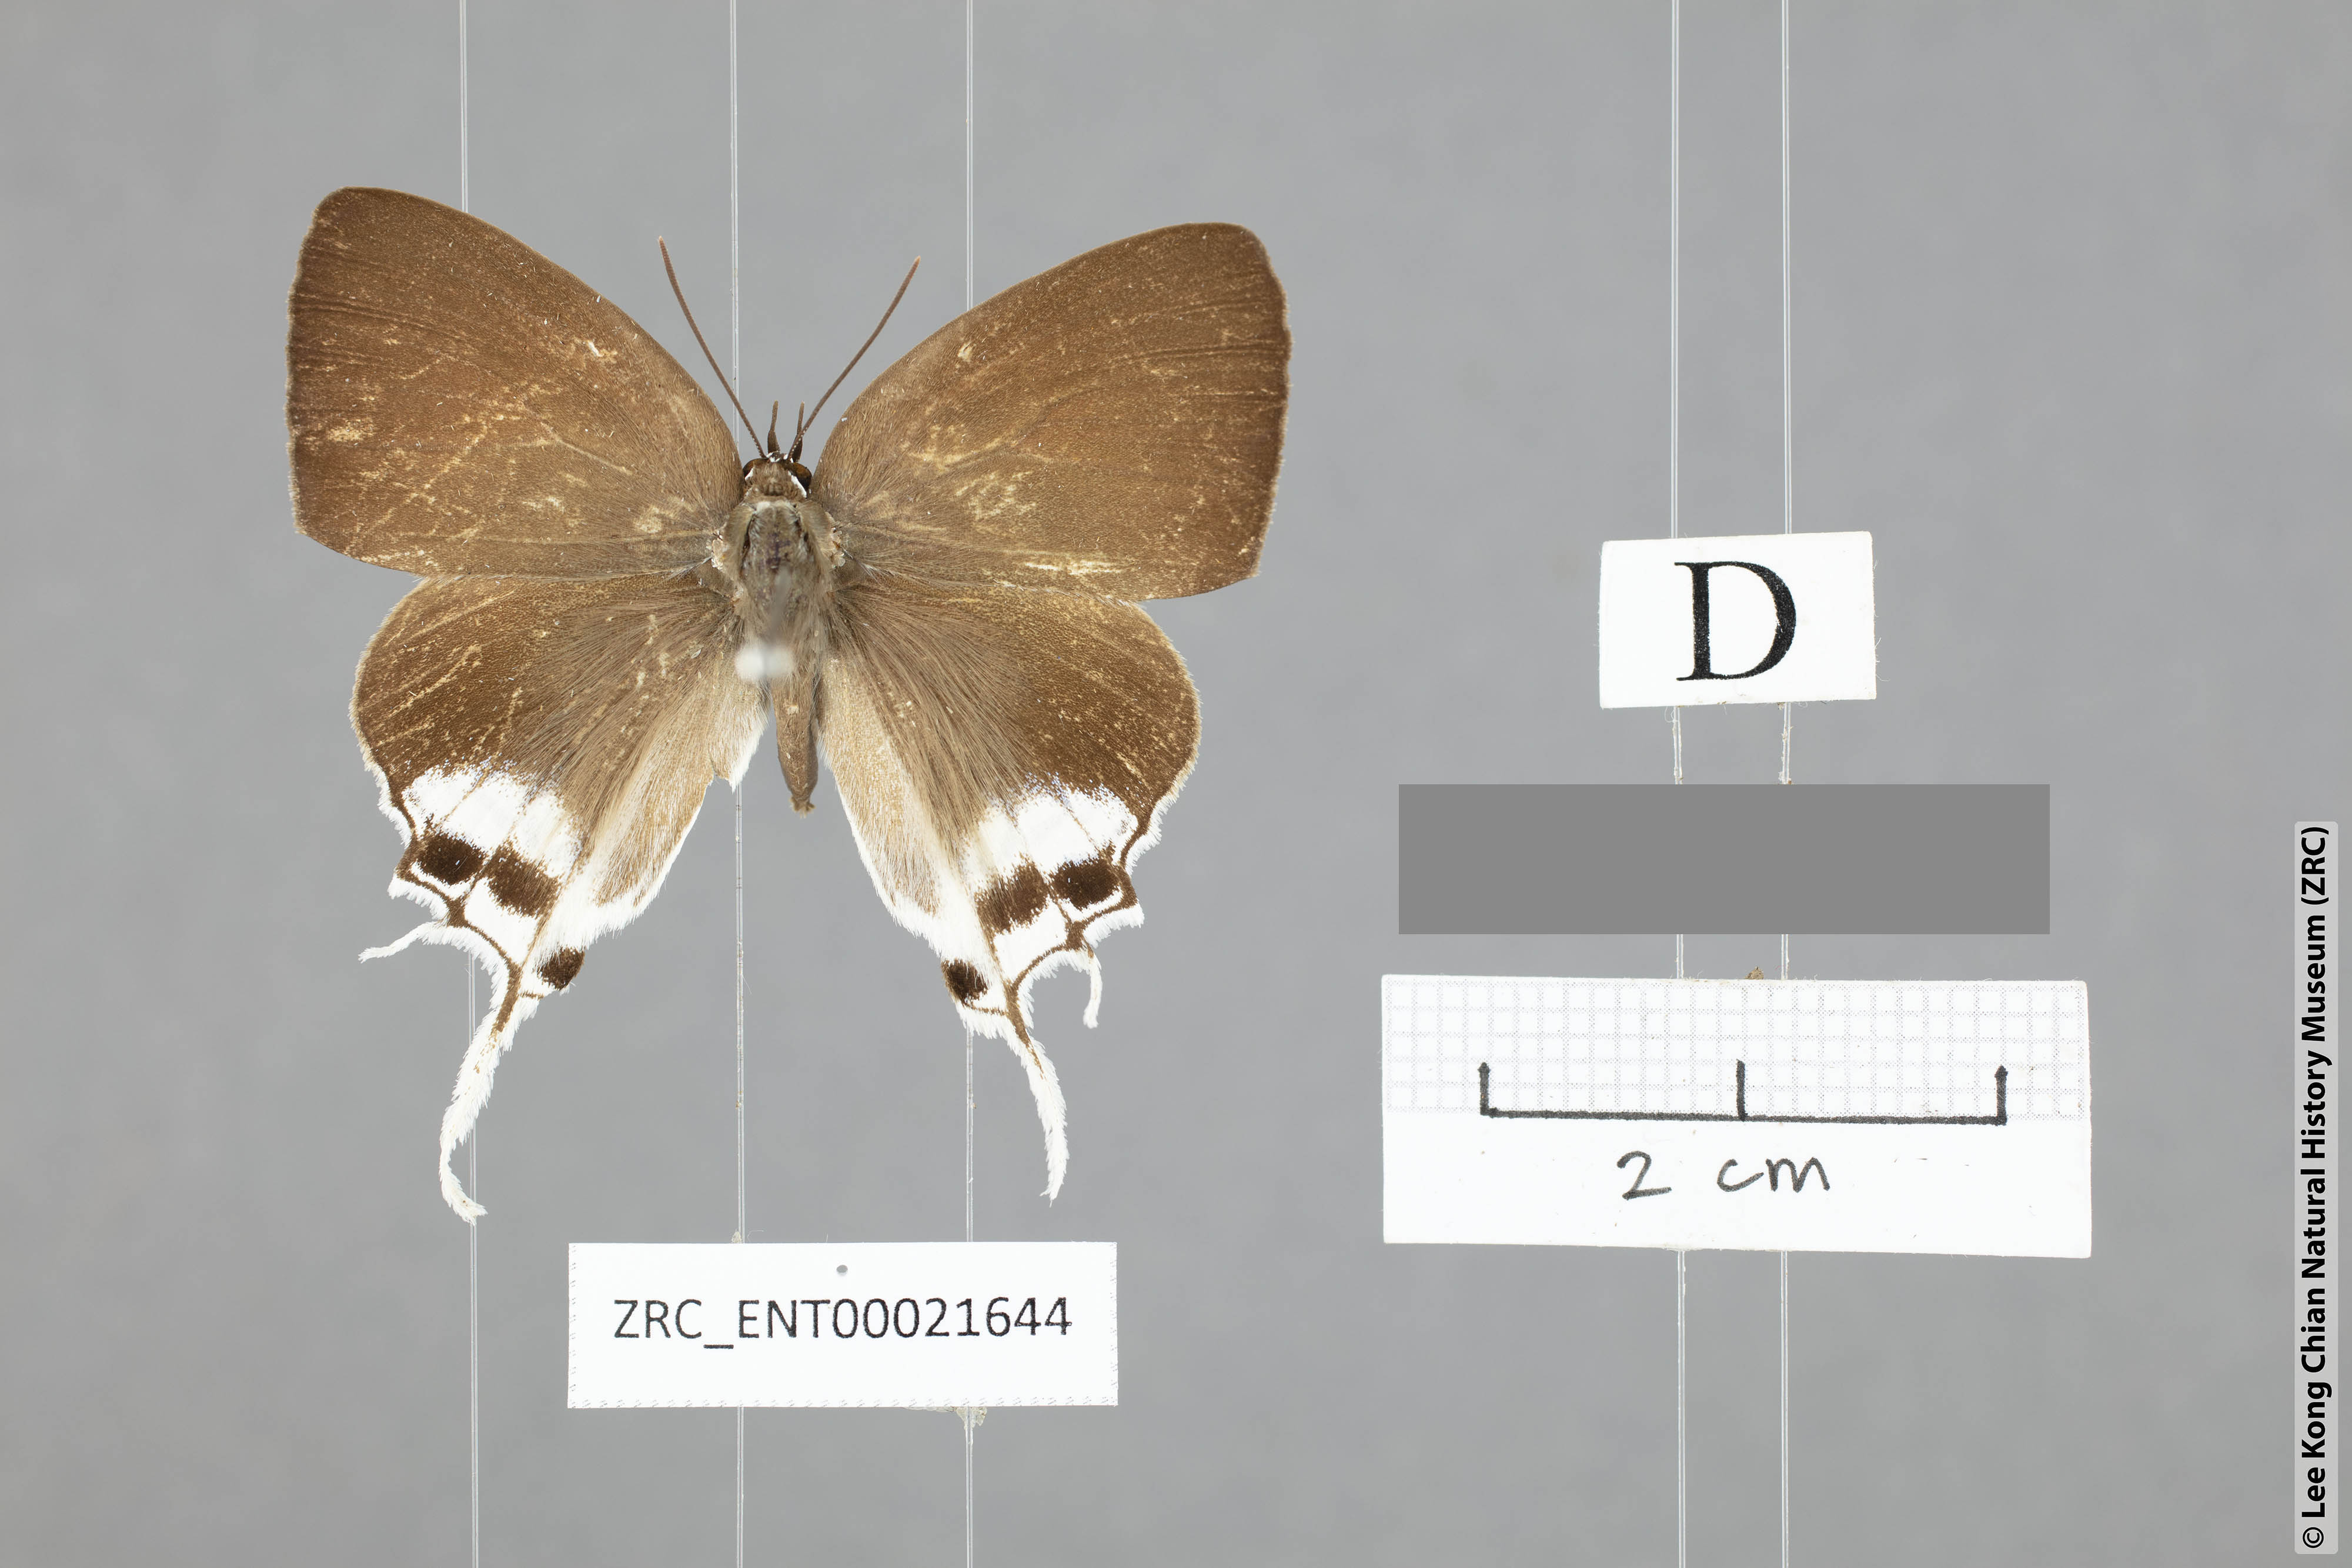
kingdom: Animalia
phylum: Arthropoda
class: Insecta
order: Lepidoptera
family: Lycaenidae
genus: Manto
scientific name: Manto hypoleuca
